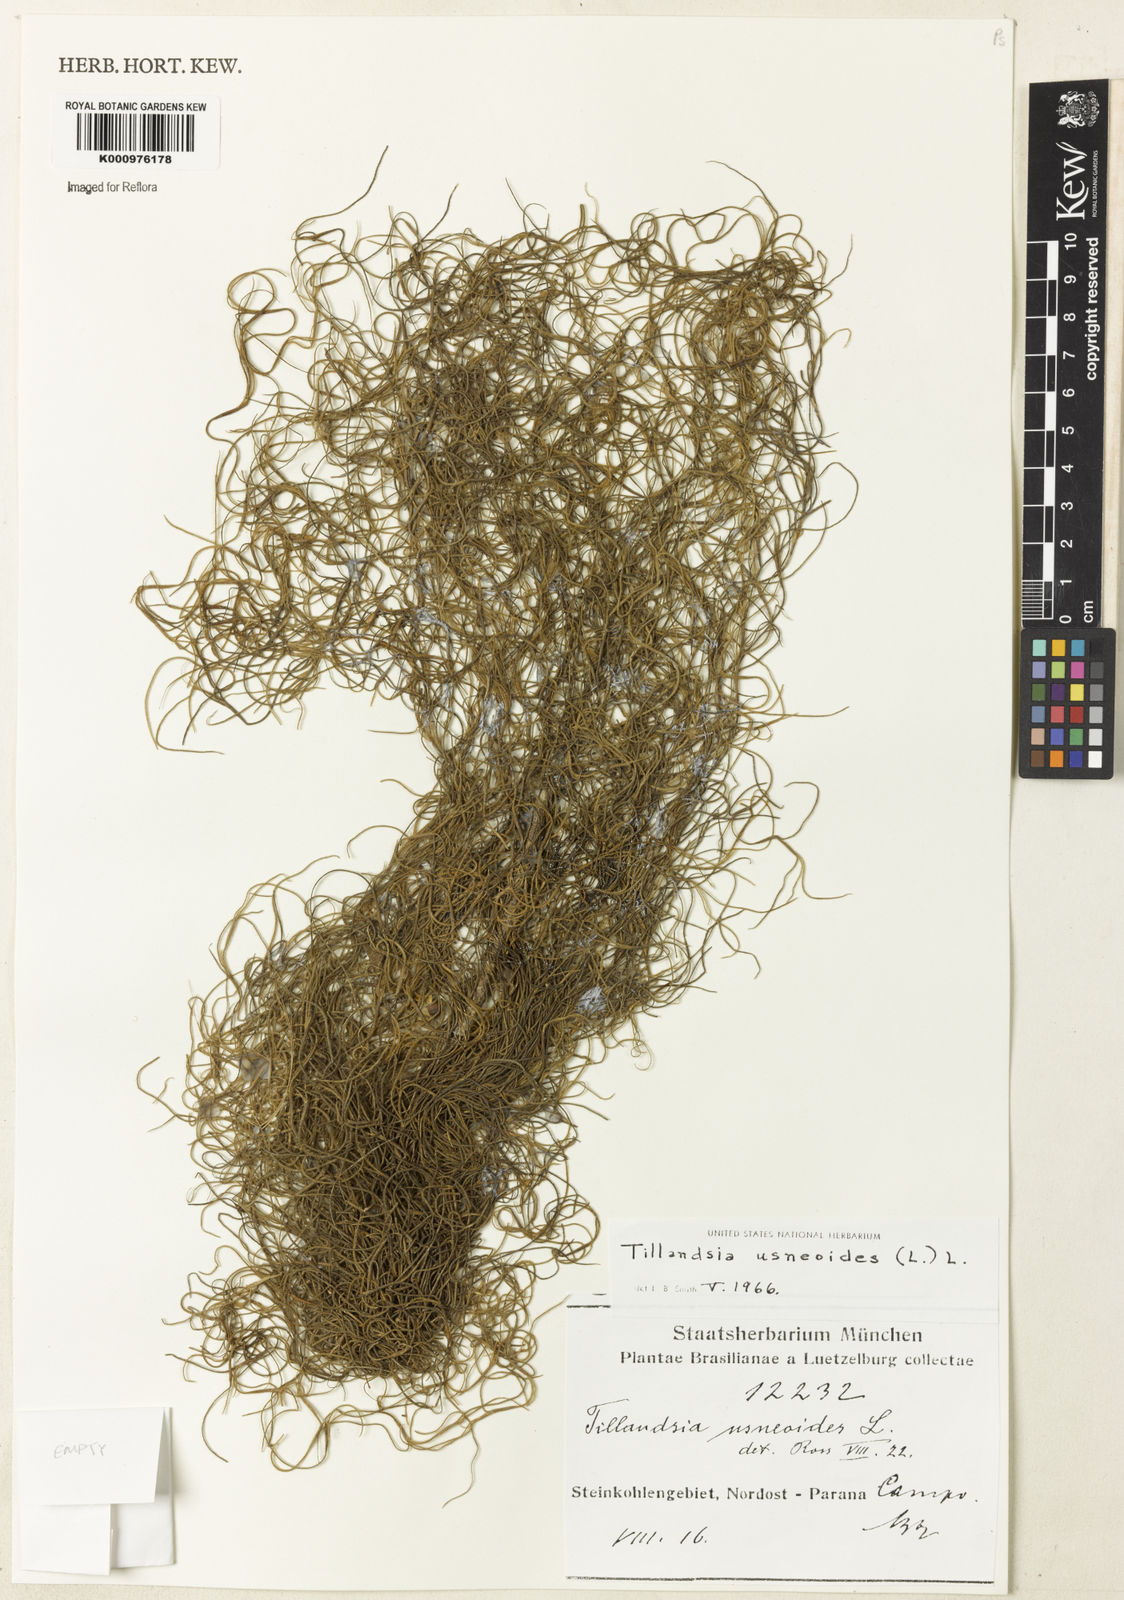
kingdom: Plantae
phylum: Tracheophyta
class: Liliopsida
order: Poales
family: Bromeliaceae
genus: Tillandsia
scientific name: Tillandsia usneoides
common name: Spanish moss
